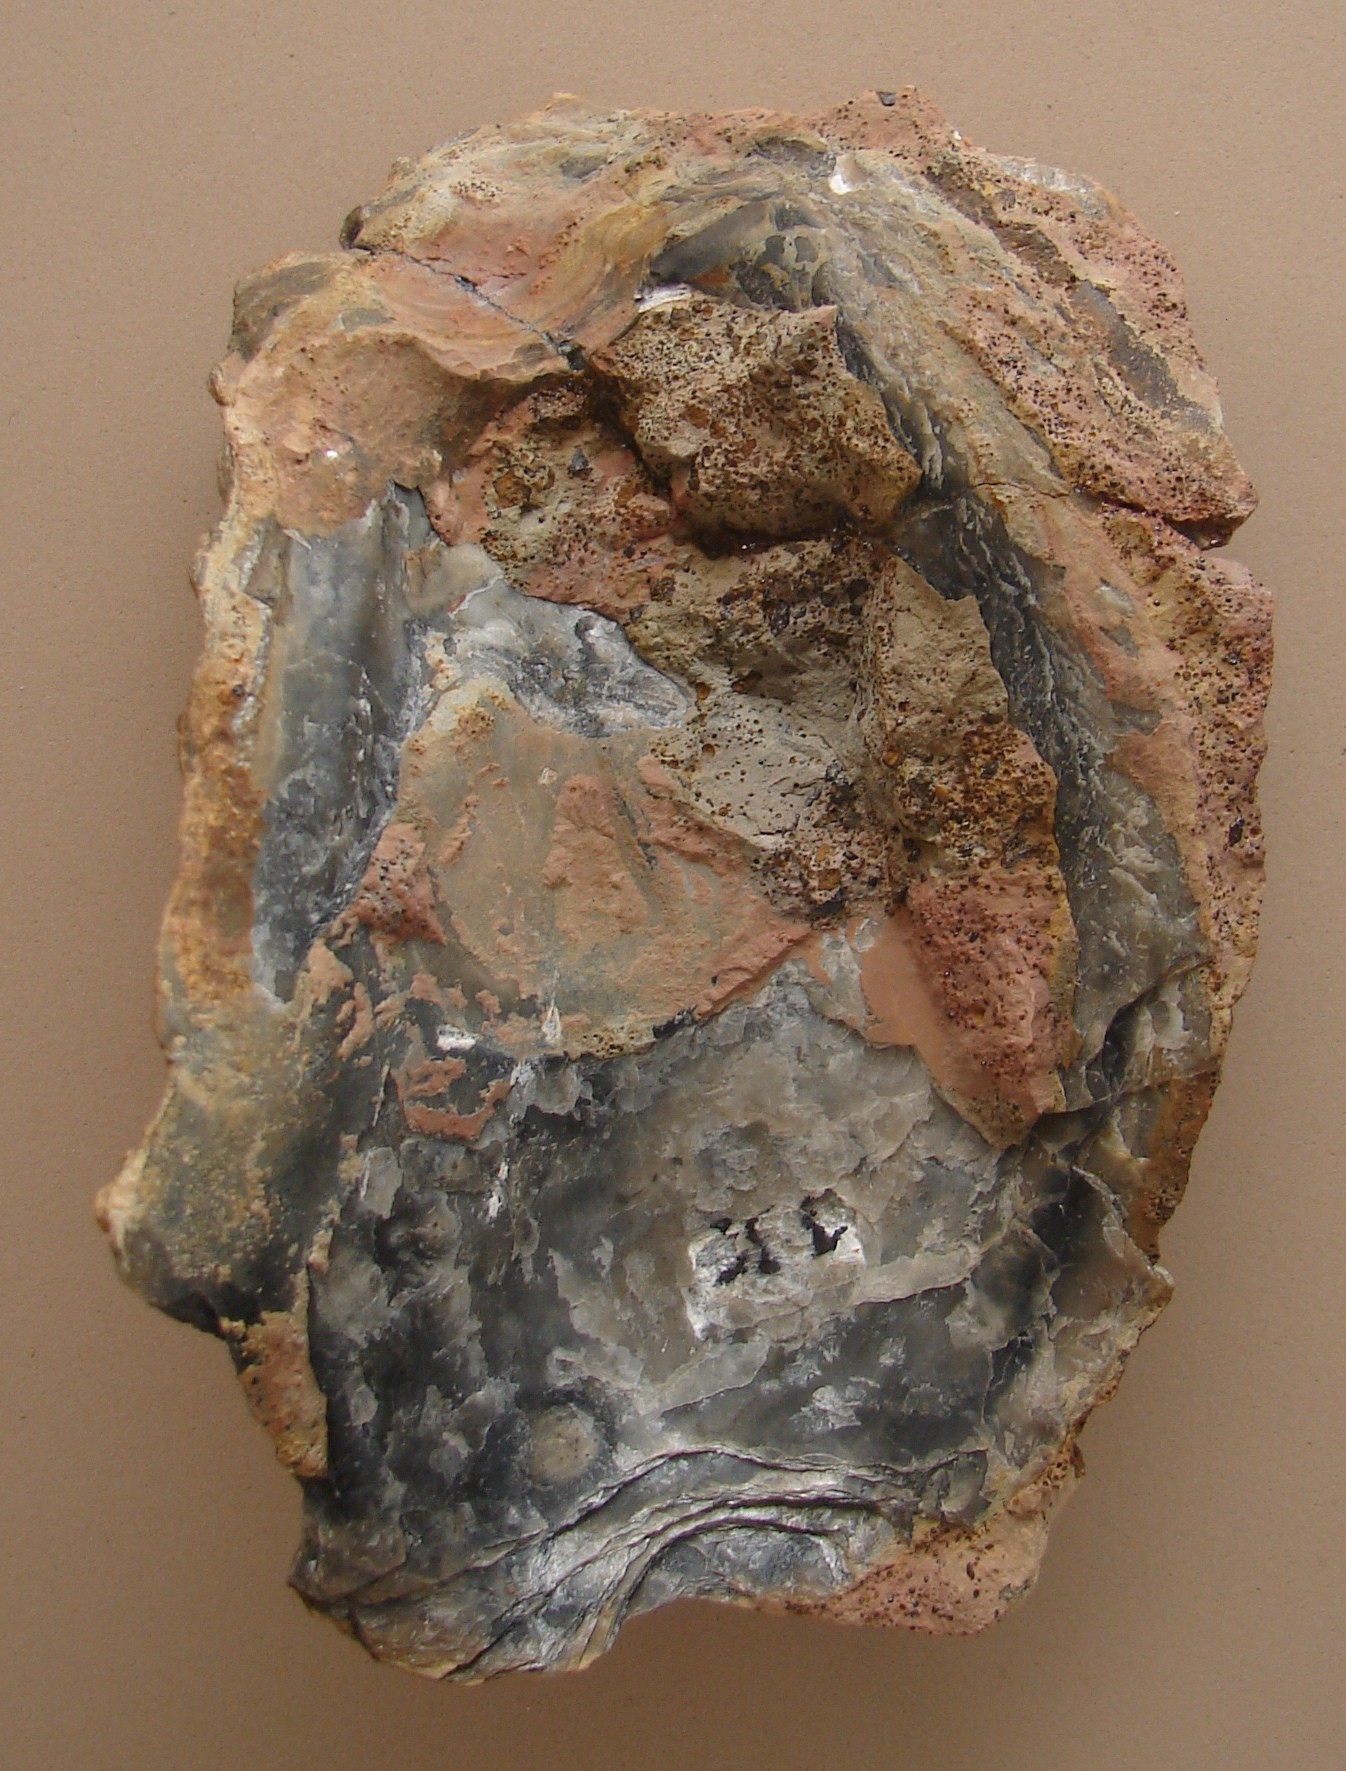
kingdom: Animalia
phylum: Mollusca
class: Bivalvia
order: Ostreida
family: Ostreidae
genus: Ostrea
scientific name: Ostrea
